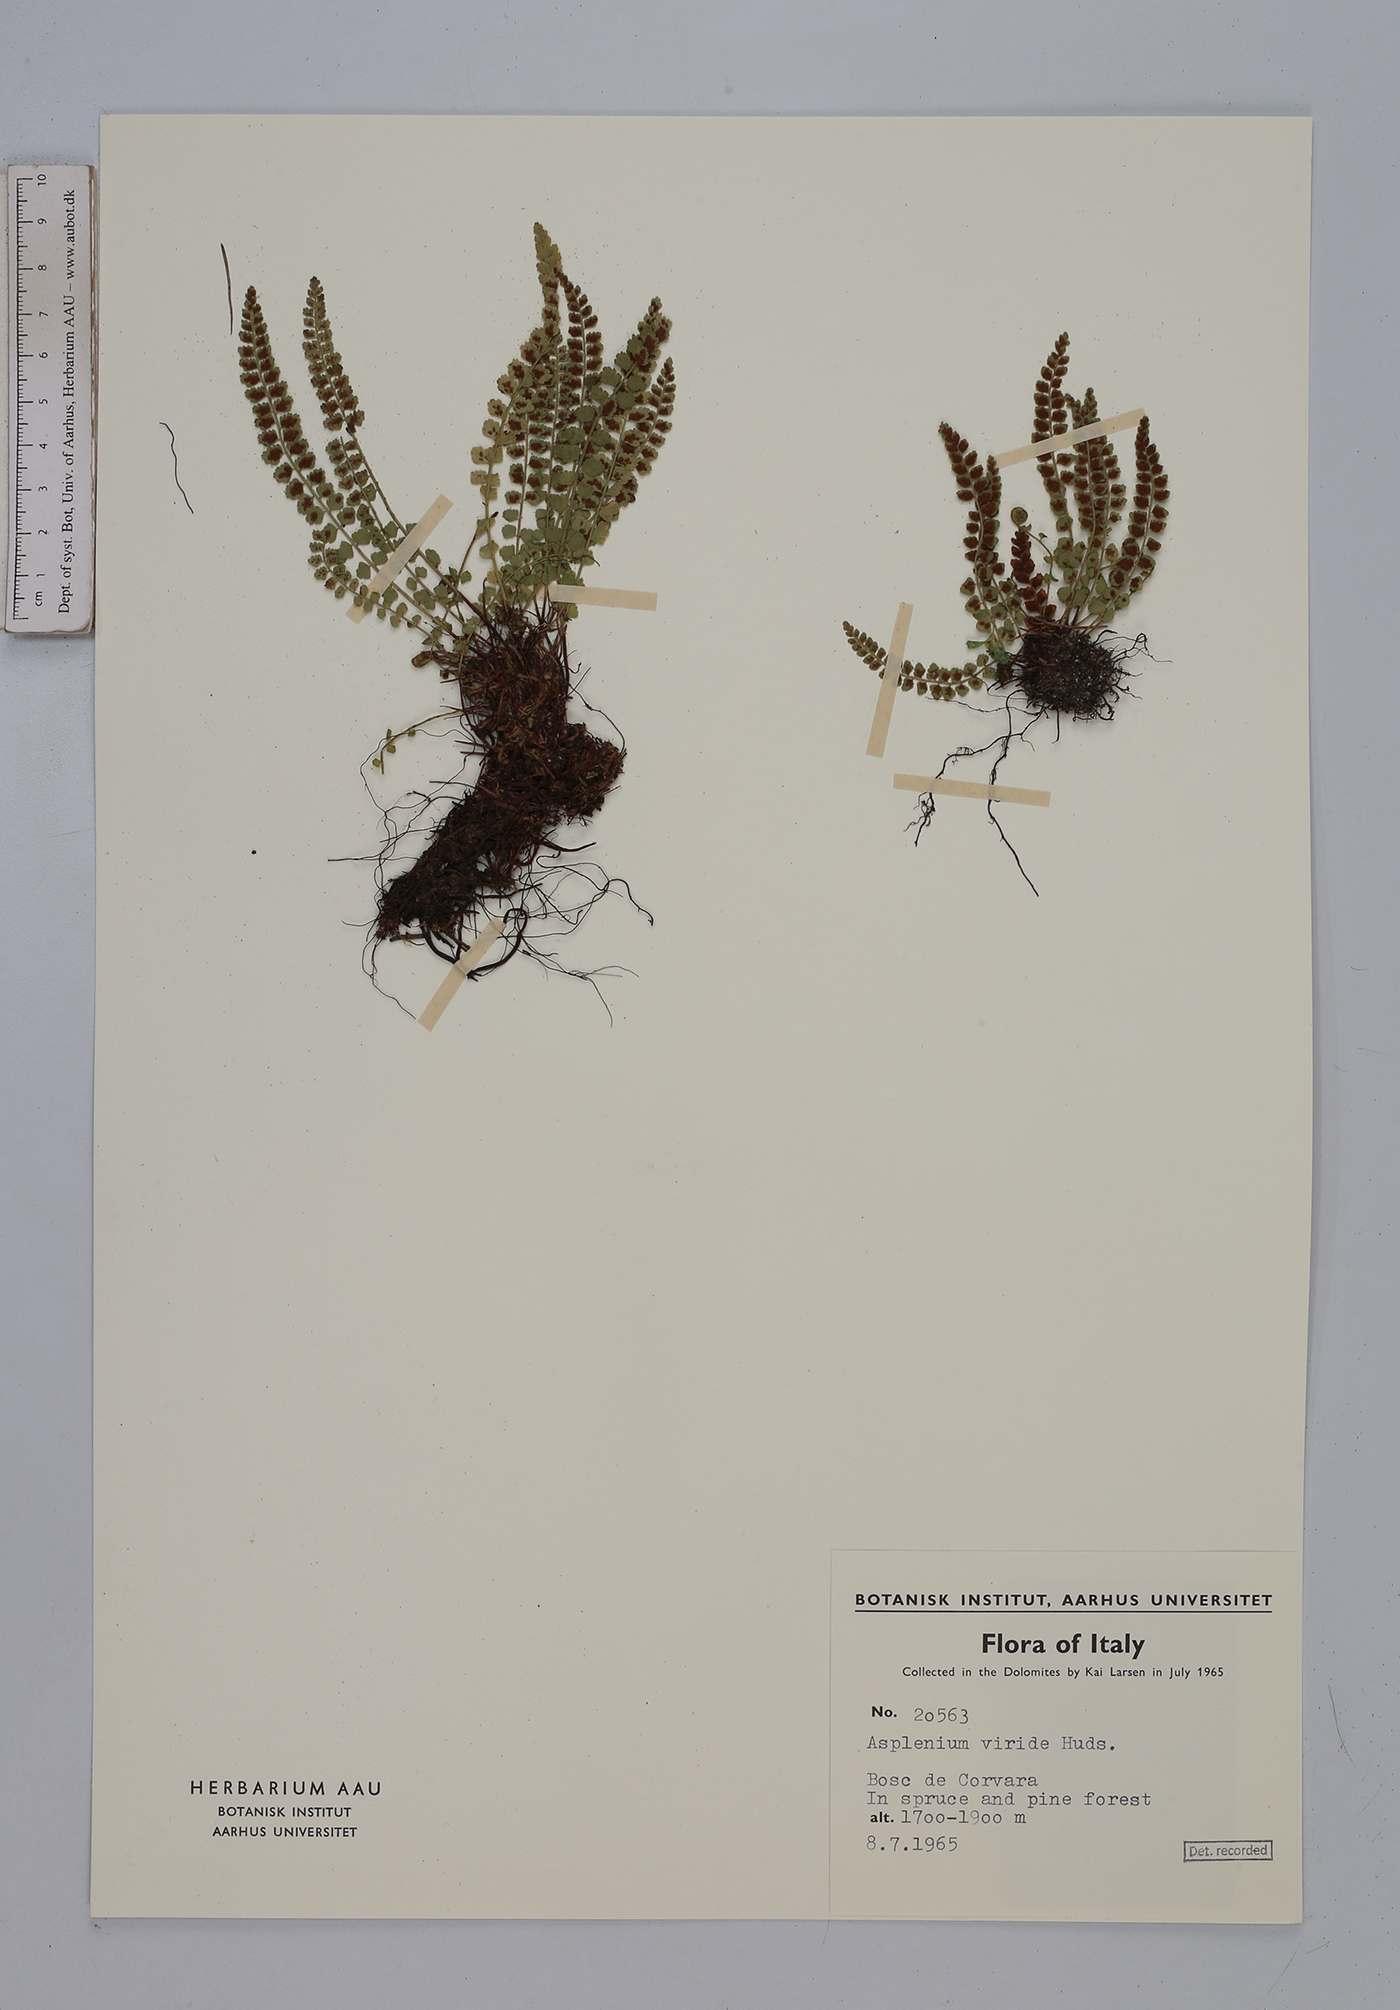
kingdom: Plantae
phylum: Tracheophyta
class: Polypodiopsida
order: Polypodiales
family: Aspleniaceae
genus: Asplenium
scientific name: Asplenium viride
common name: Green spleenwort
